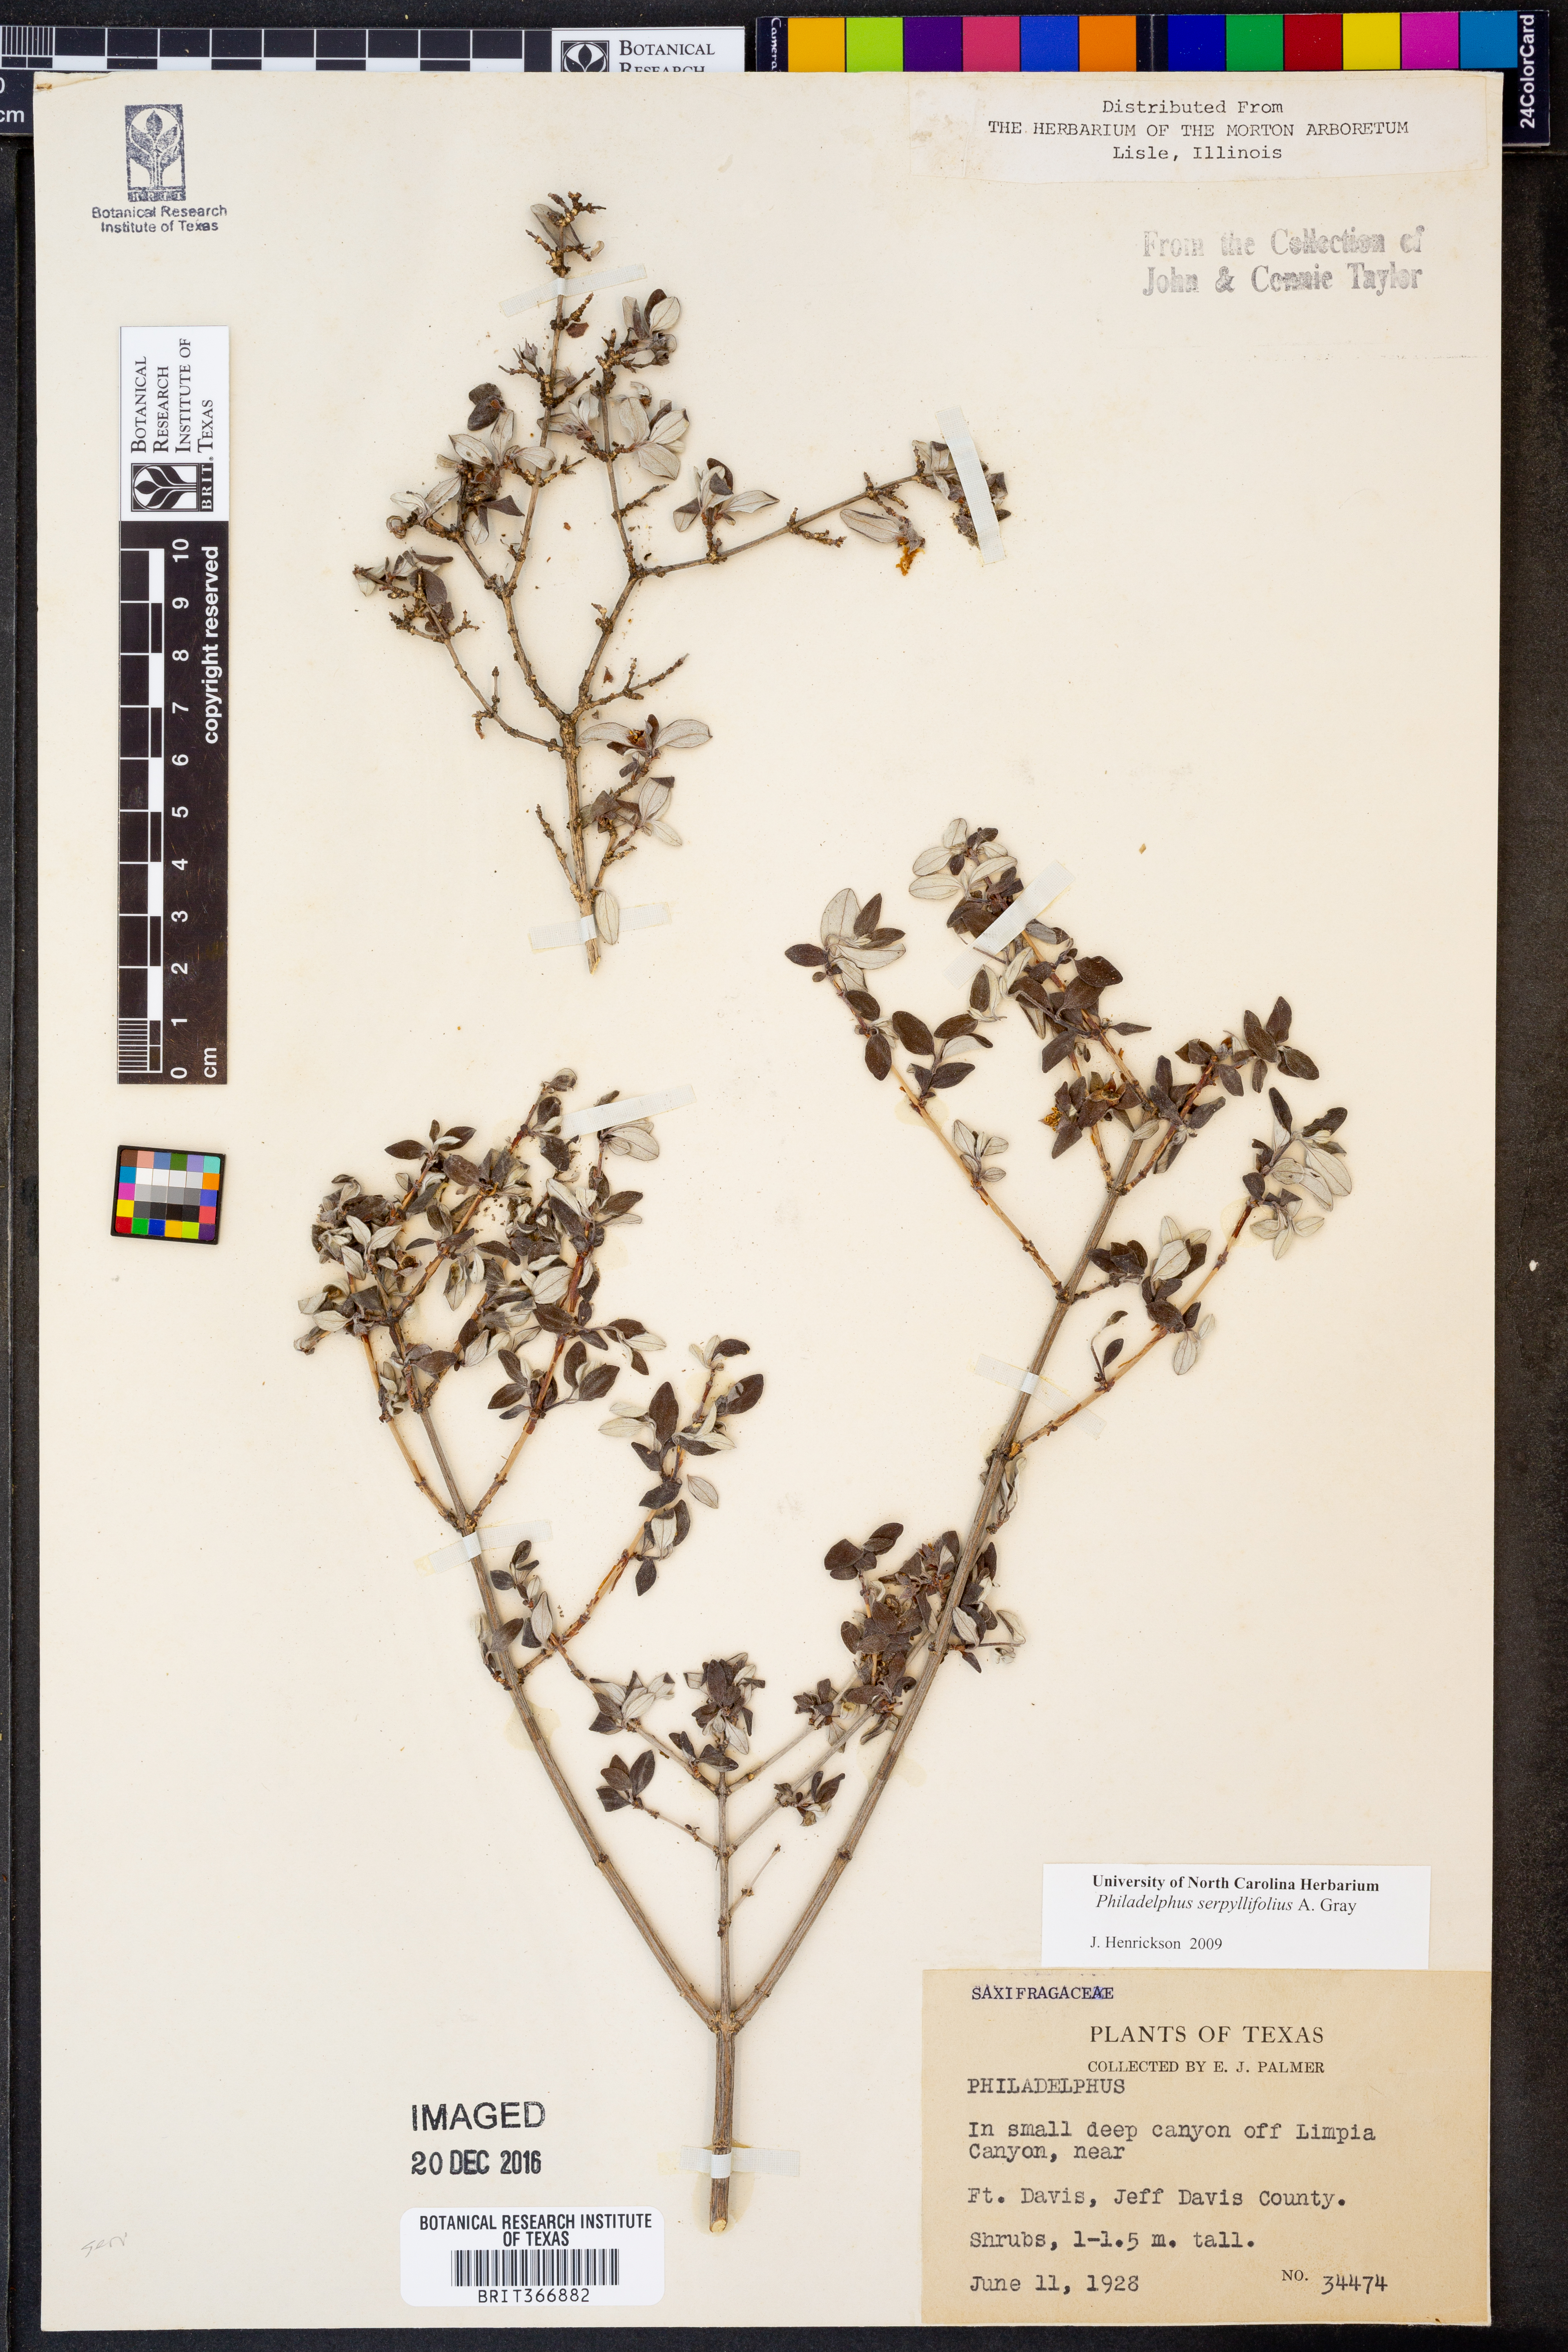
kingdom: Plantae
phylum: Tracheophyta
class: Magnoliopsida
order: Cornales
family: Hydrangeaceae
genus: Philadelphus
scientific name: Philadelphus serpyllifolius
